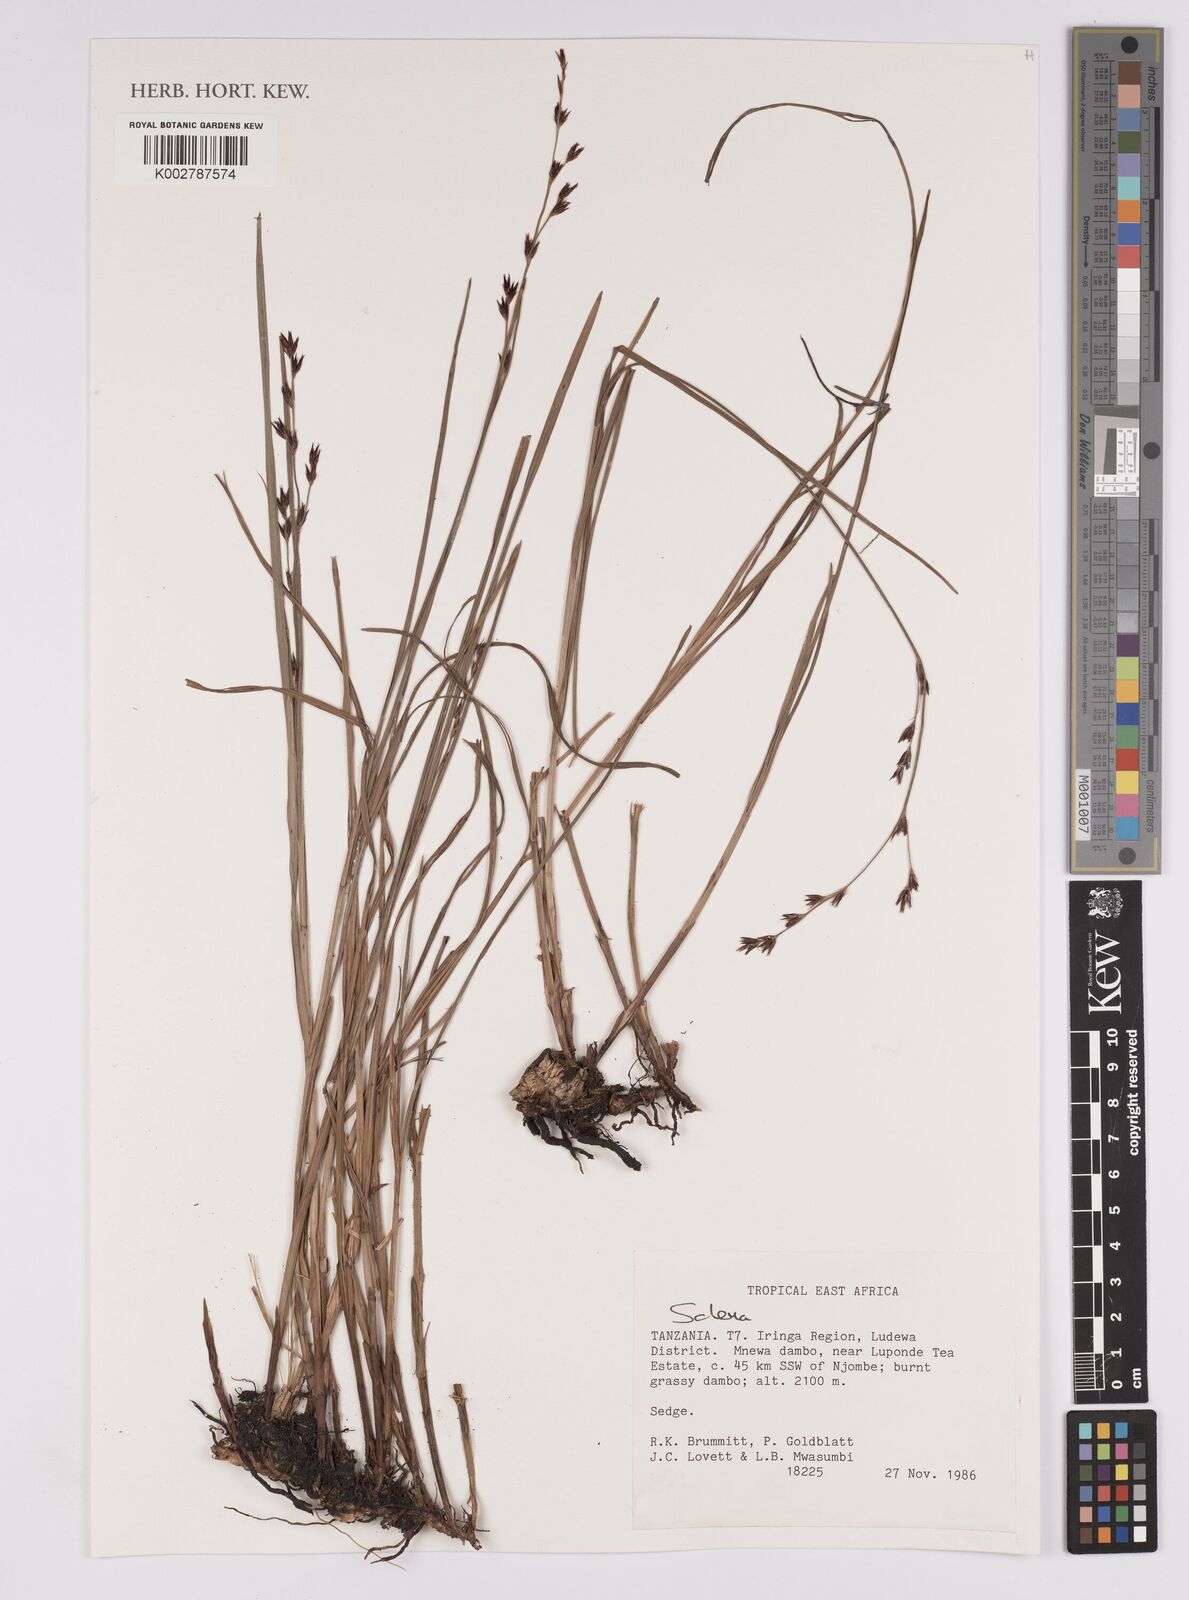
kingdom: Plantae
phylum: Tracheophyta
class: Liliopsida
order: Poales
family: Cyperaceae
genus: Scleria
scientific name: Scleria
